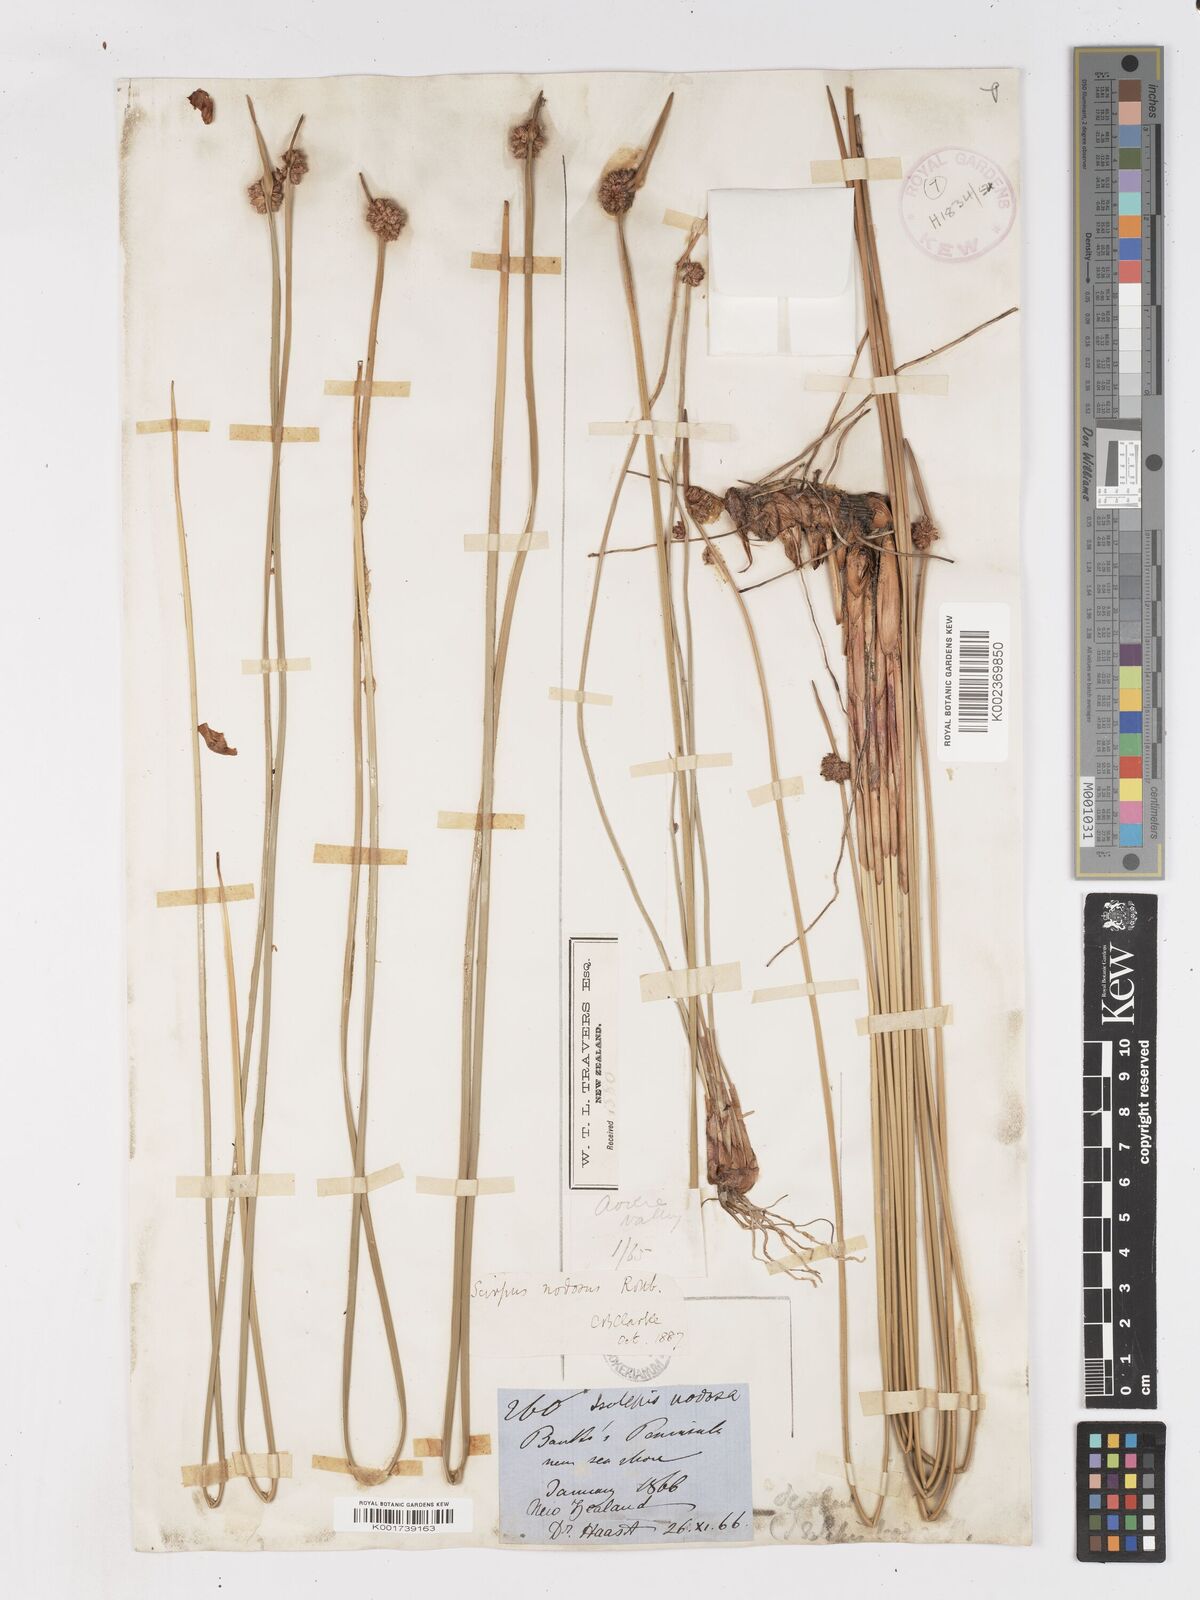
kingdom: Plantae
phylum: Tracheophyta
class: Liliopsida
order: Poales
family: Cyperaceae
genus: Ficinia
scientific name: Ficinia nodosa
